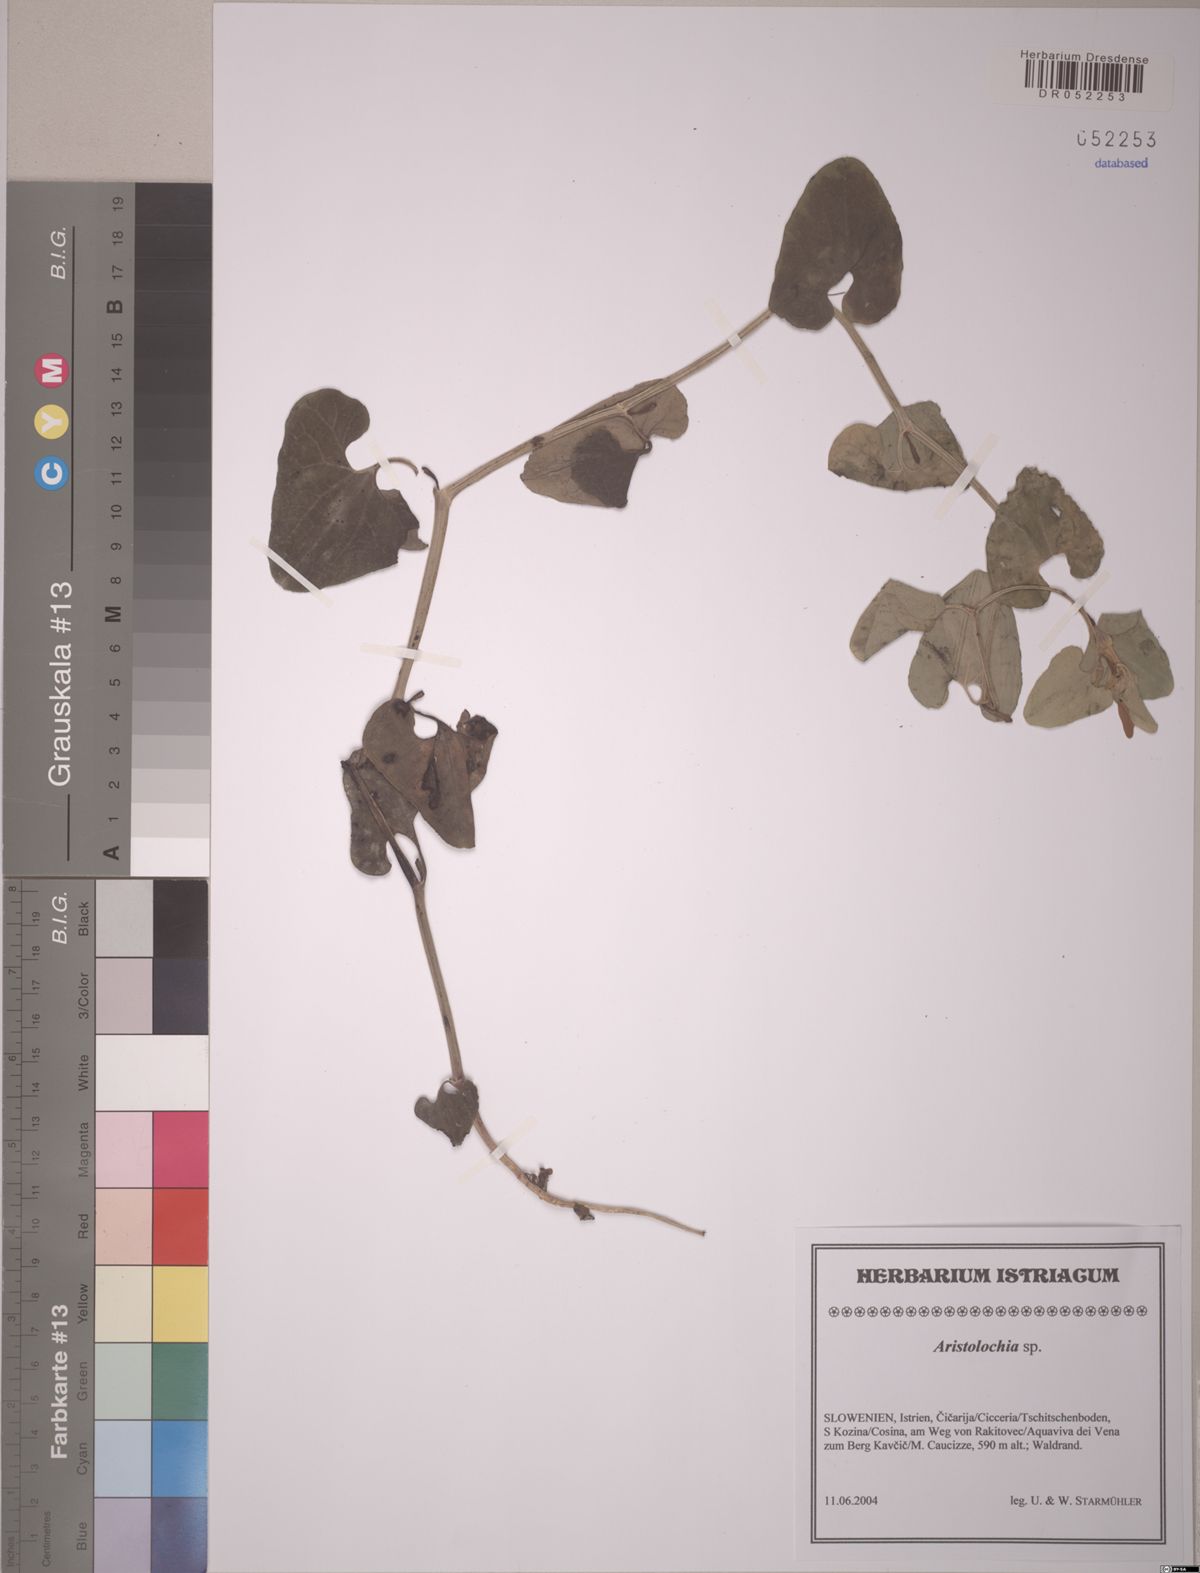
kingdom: Plantae
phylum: Tracheophyta
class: Magnoliopsida
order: Piperales
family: Aristolochiaceae
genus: Aristolochia
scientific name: Aristolochia
